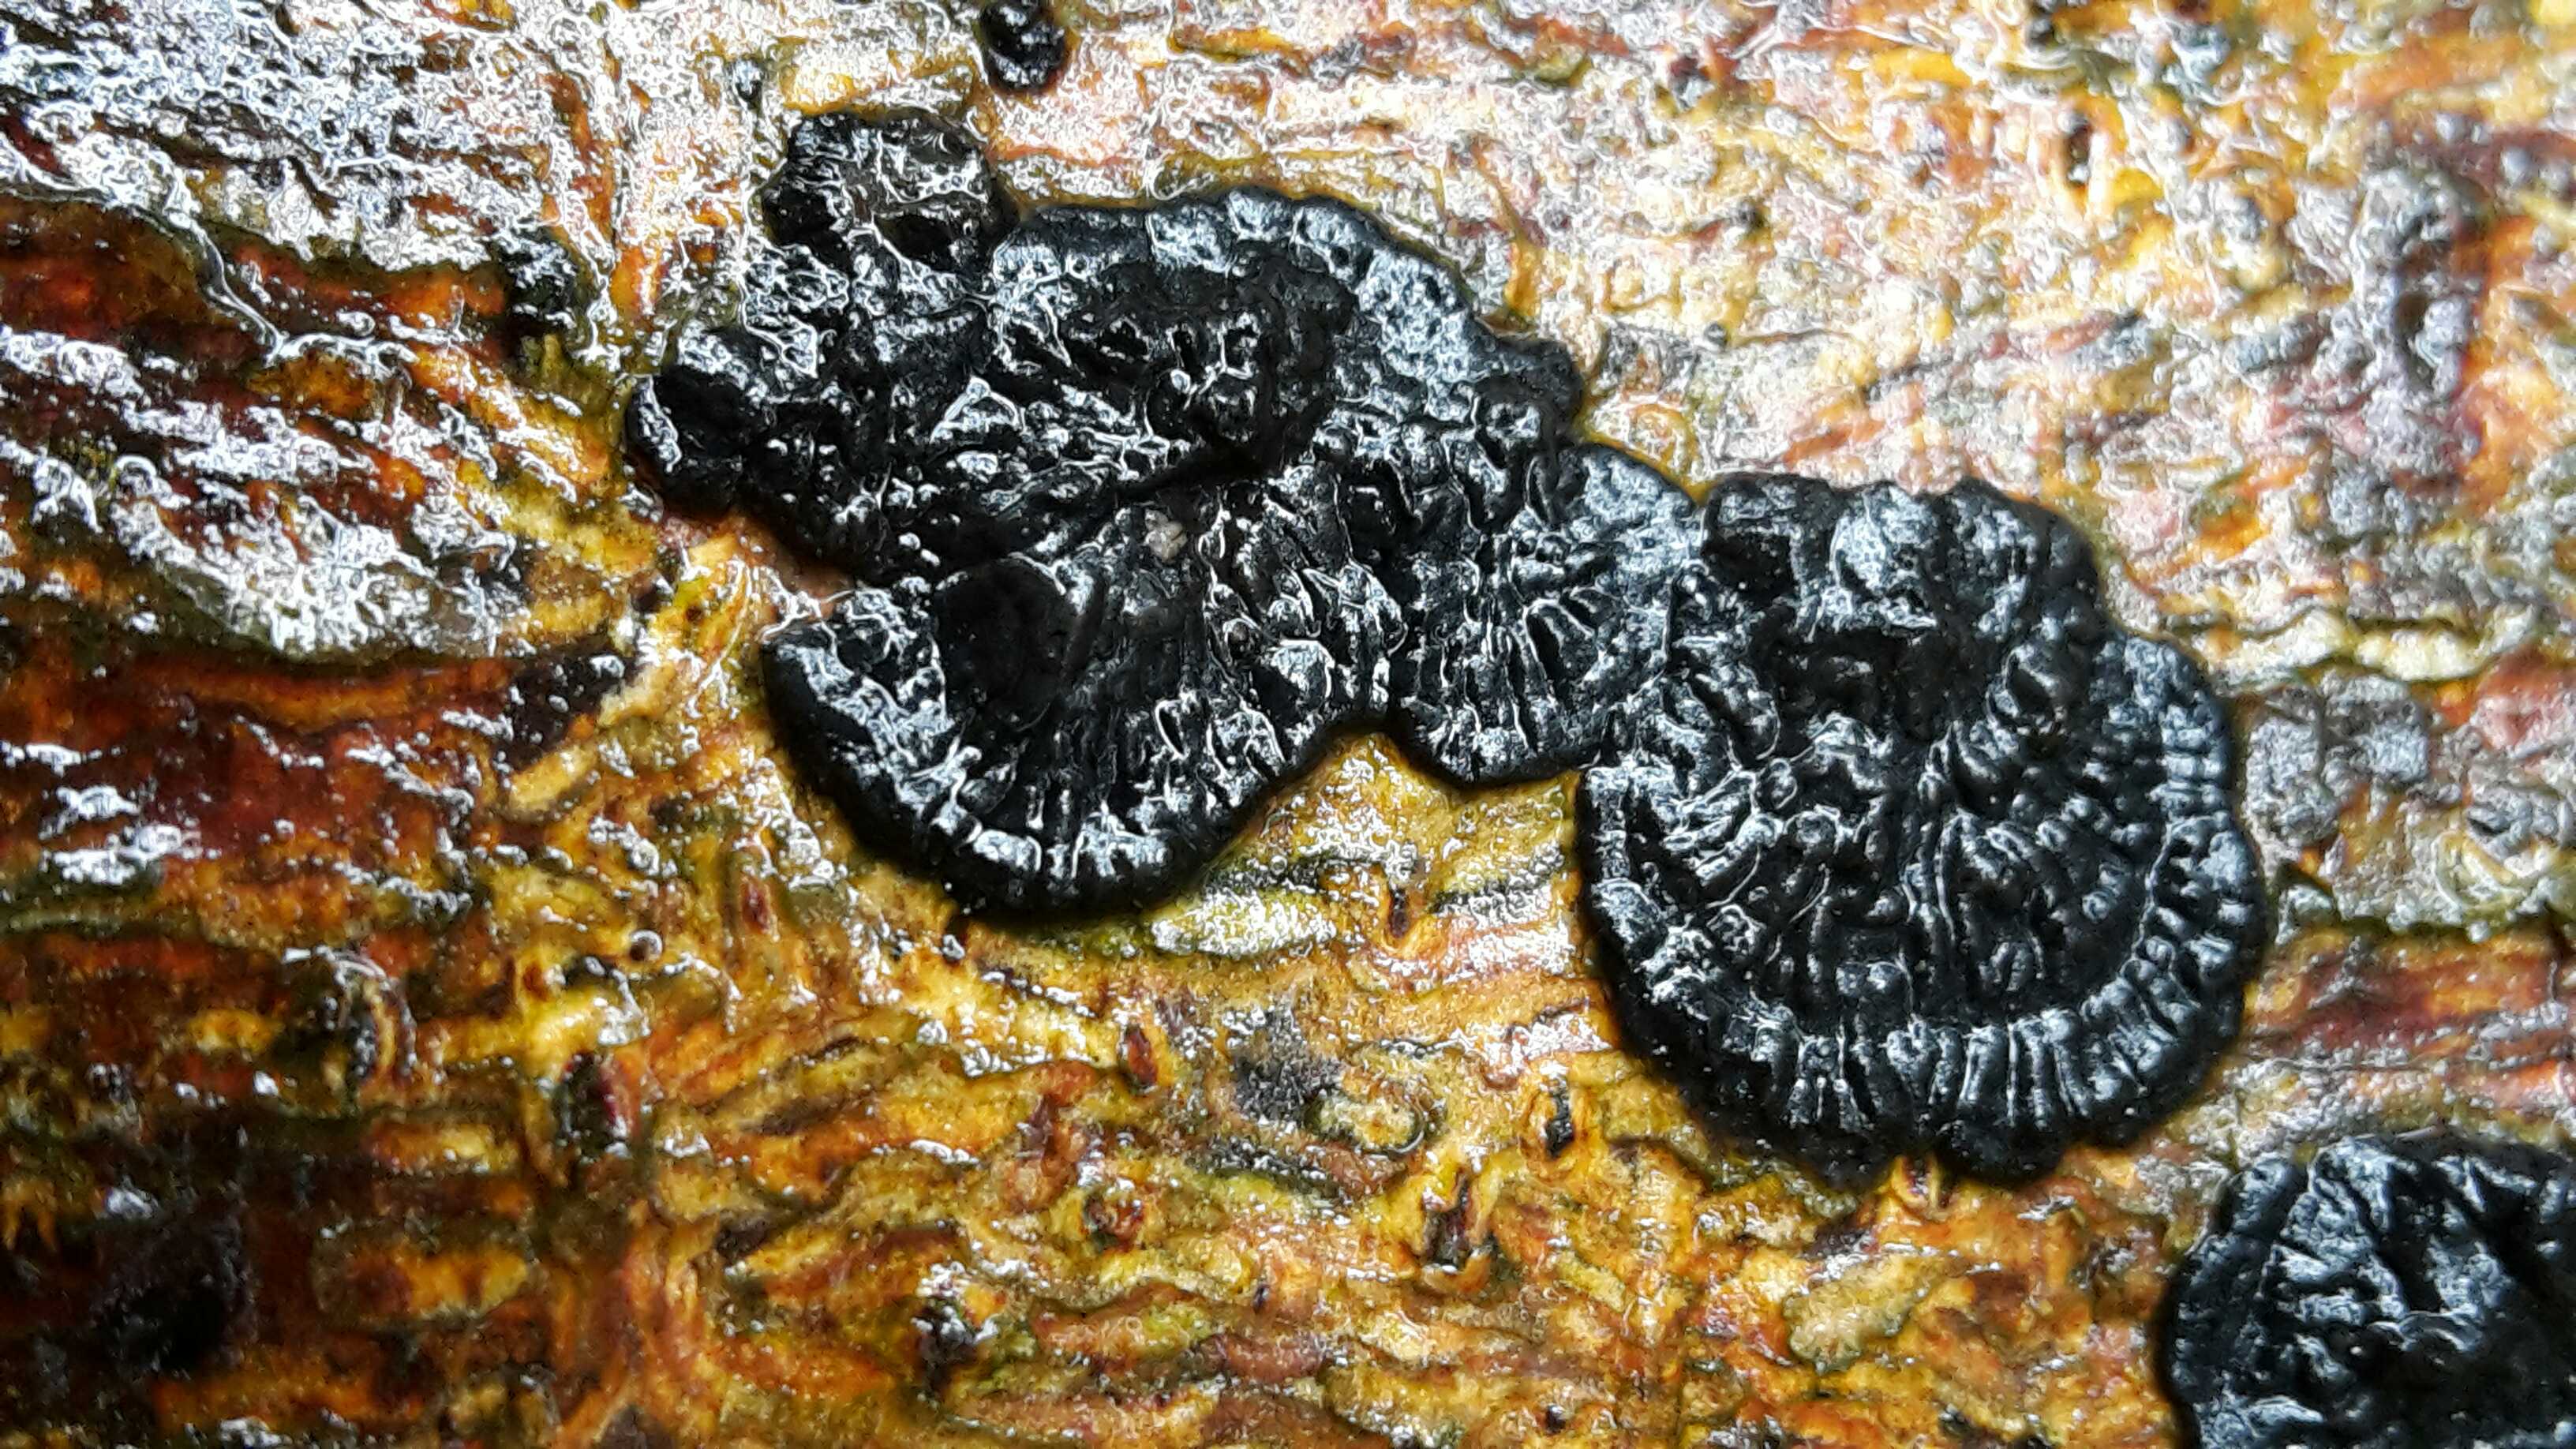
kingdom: Fungi
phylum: Basidiomycota
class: Agaricomycetes
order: Auriculariales
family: Auriculariaceae
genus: Exidia
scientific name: Exidia pithya
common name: gran-bævretop
